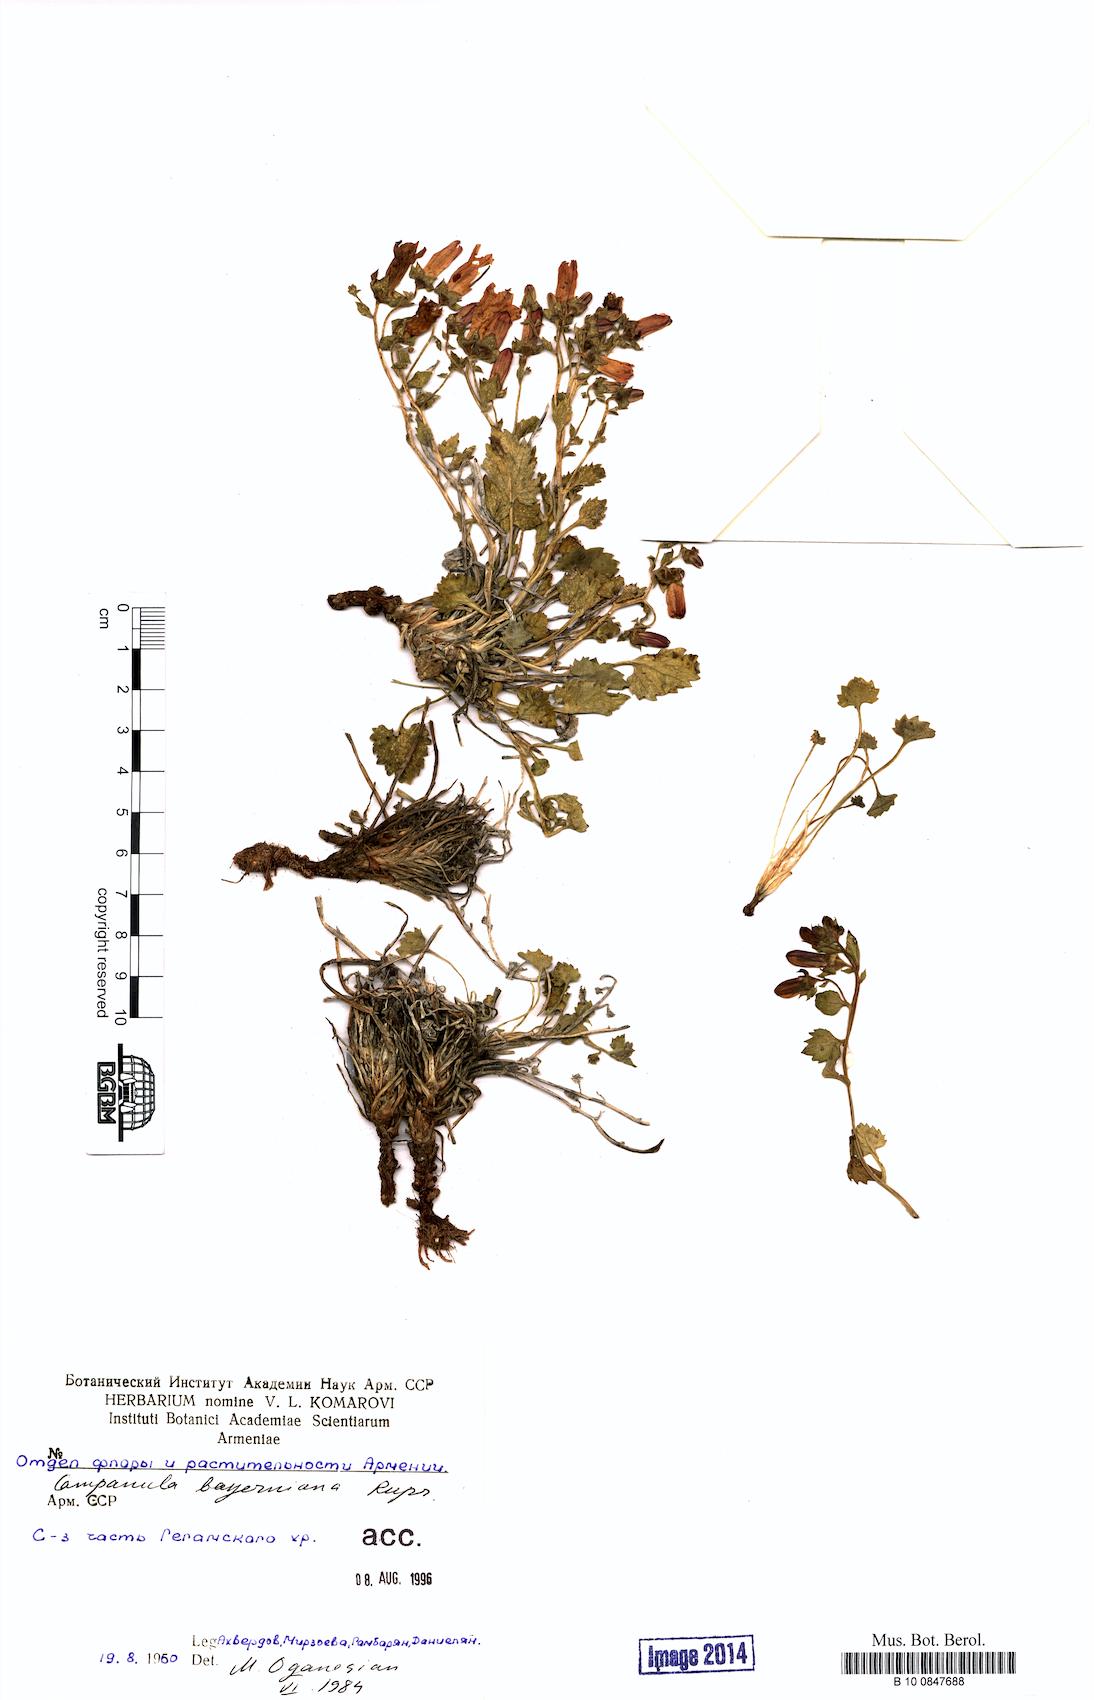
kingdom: Plantae
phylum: Tracheophyta
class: Magnoliopsida
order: Asterales
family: Campanulaceae
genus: Campanula
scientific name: Campanula bayerniana
